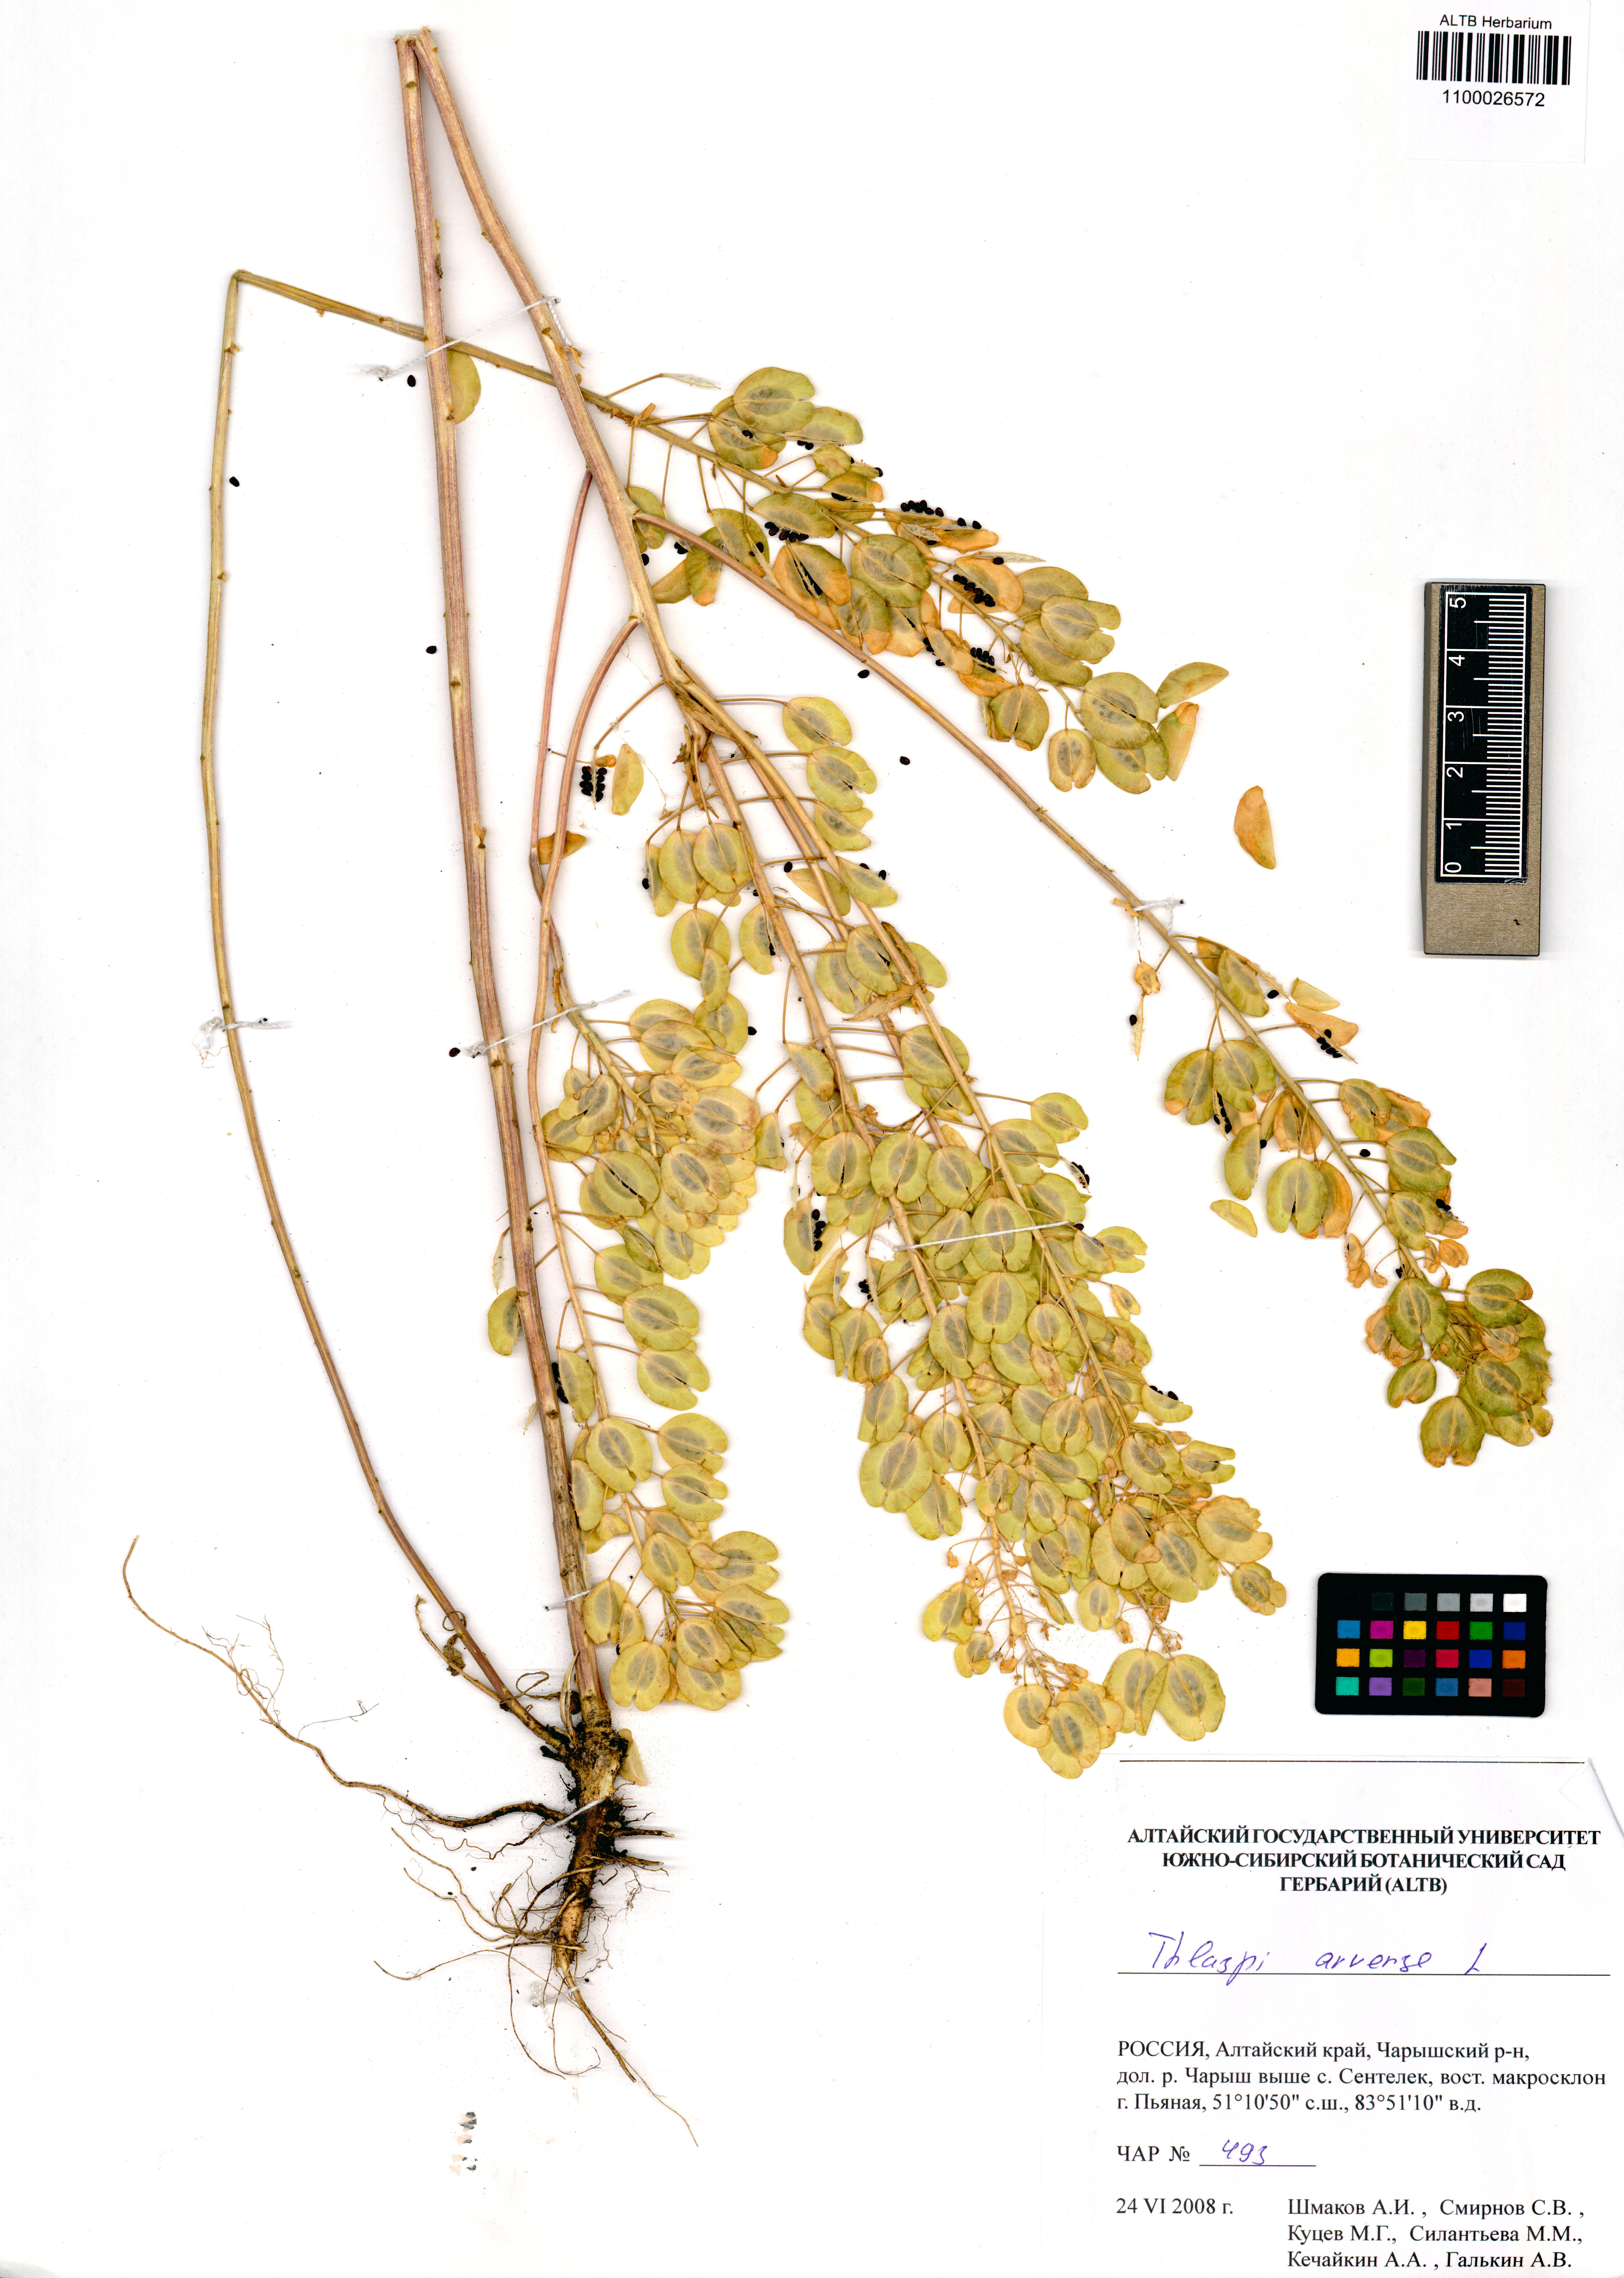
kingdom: Plantae
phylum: Tracheophyta
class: Magnoliopsida
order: Brassicales
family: Brassicaceae
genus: Thlaspi
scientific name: Thlaspi arvense
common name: Field pennycress
